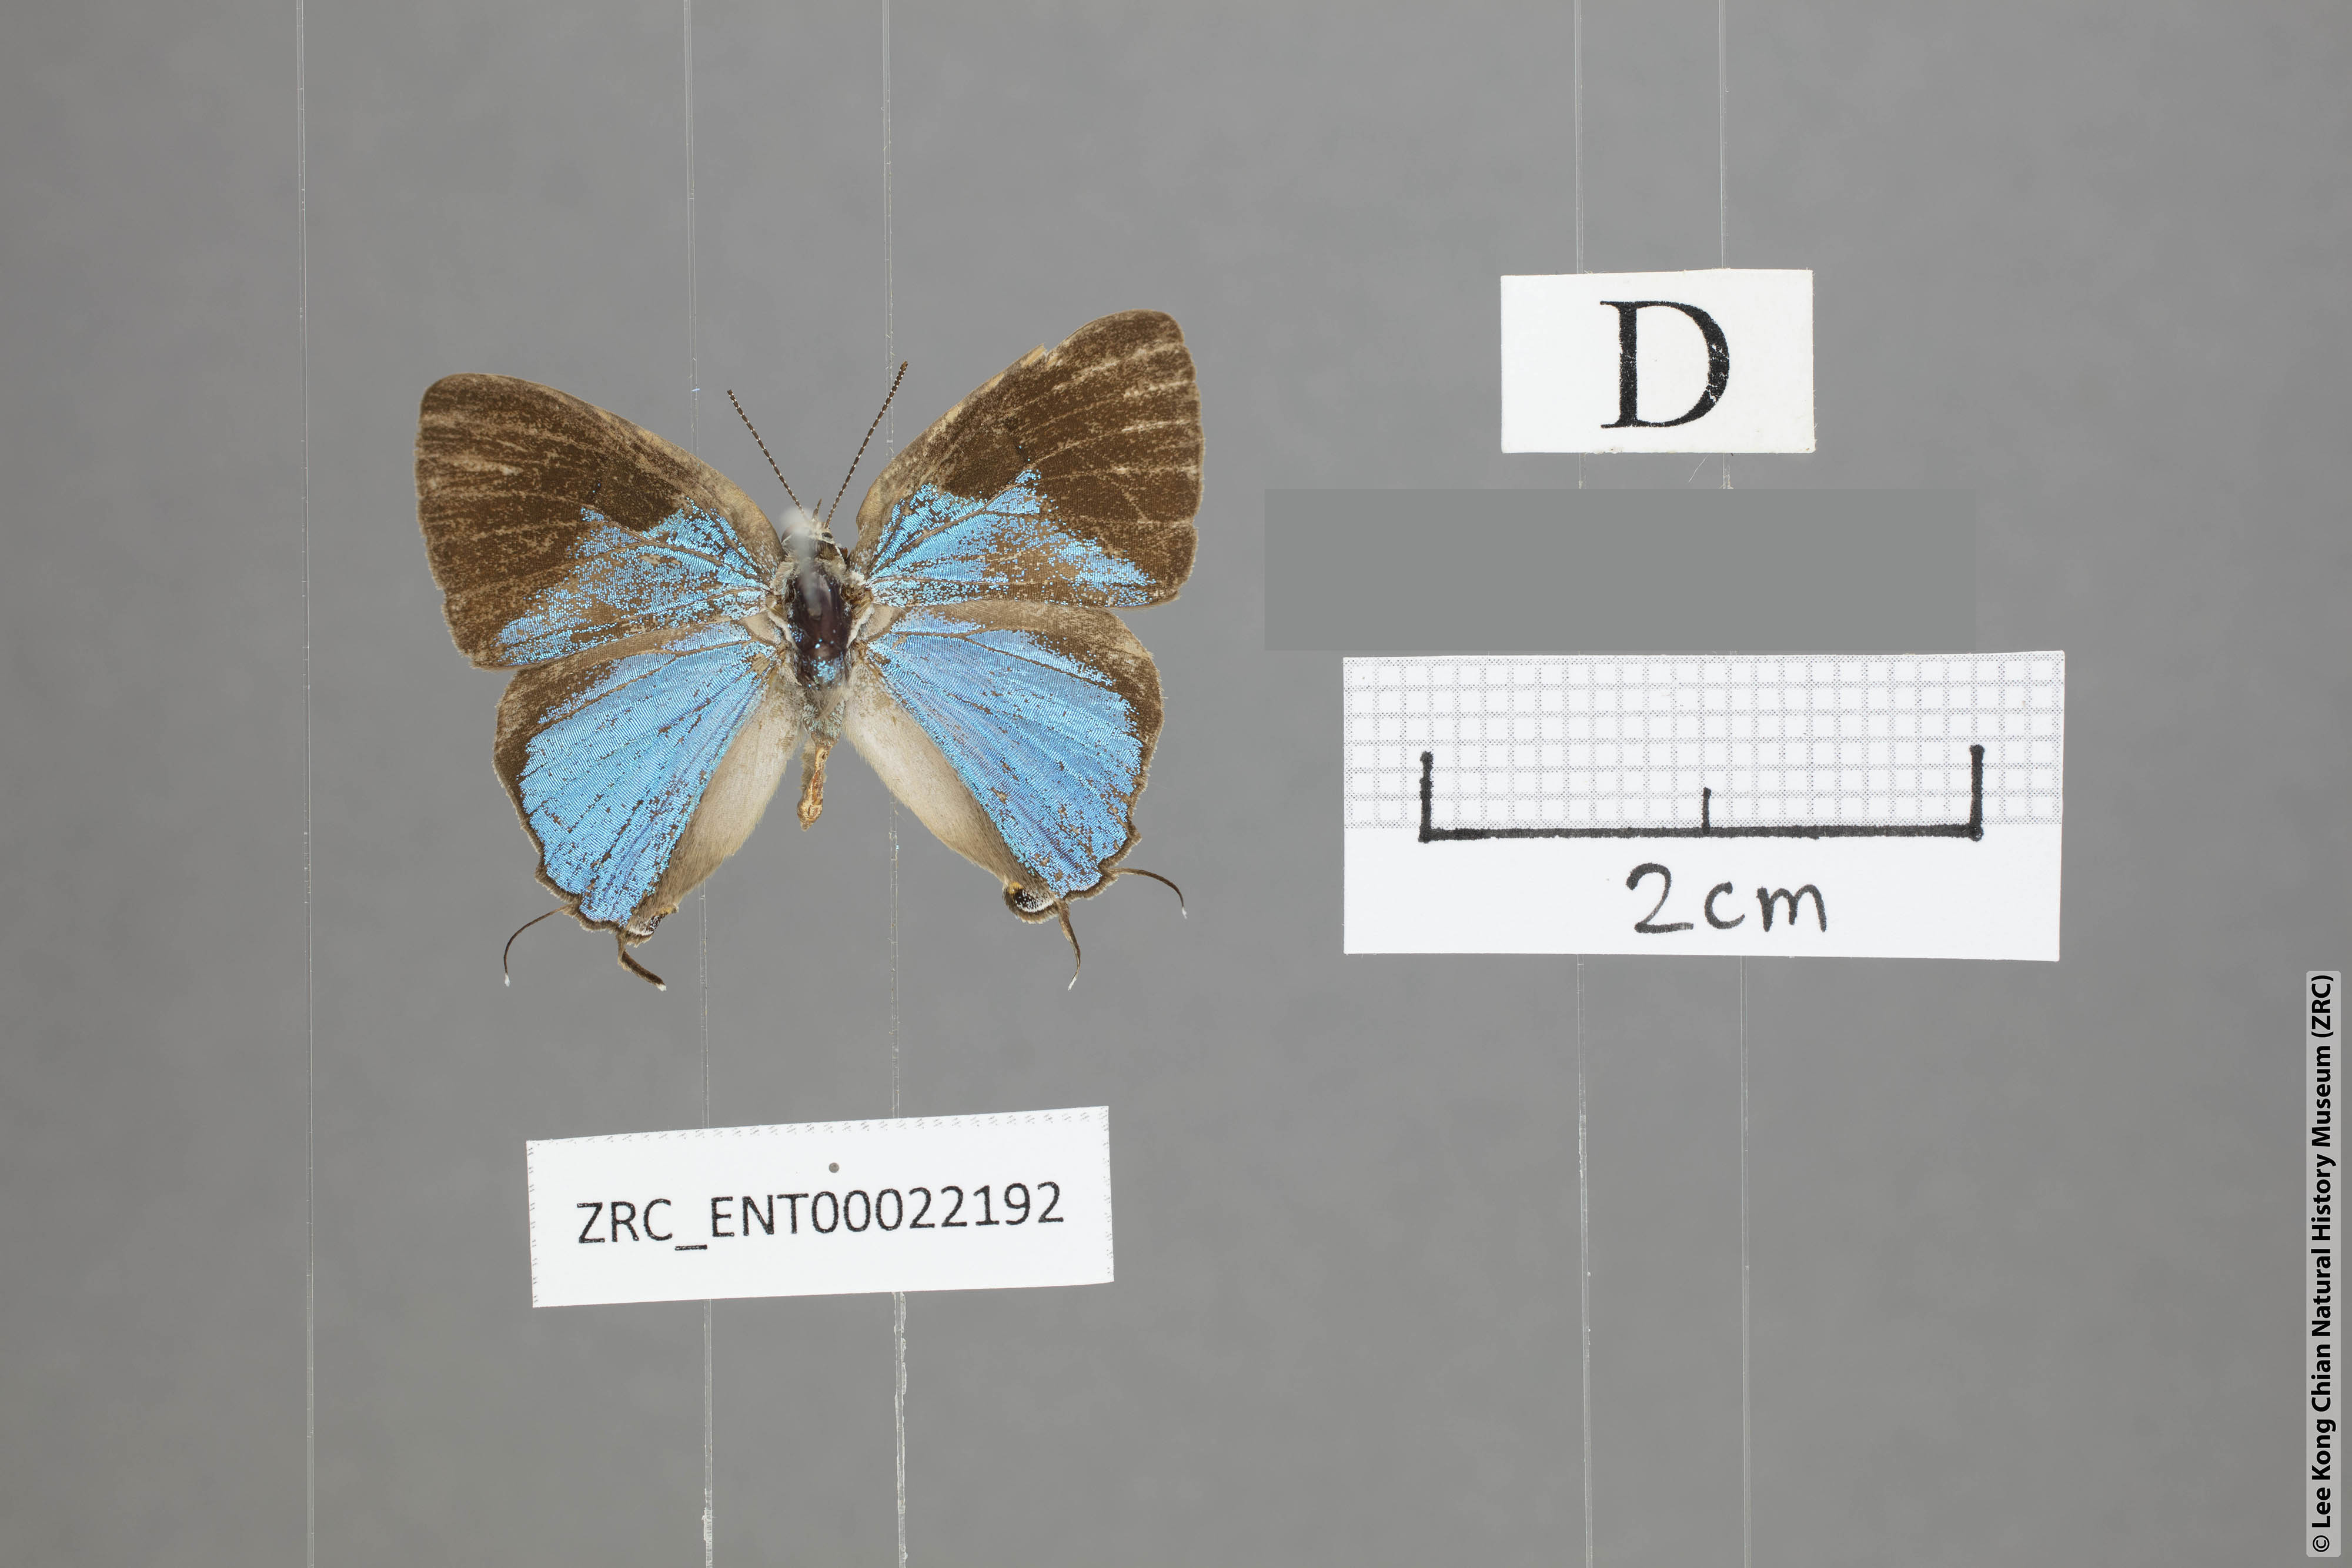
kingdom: Animalia
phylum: Arthropoda
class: Insecta
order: Lepidoptera
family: Lycaenidae
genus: Tajuria
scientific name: Tajuria dominus
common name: Influent royal
